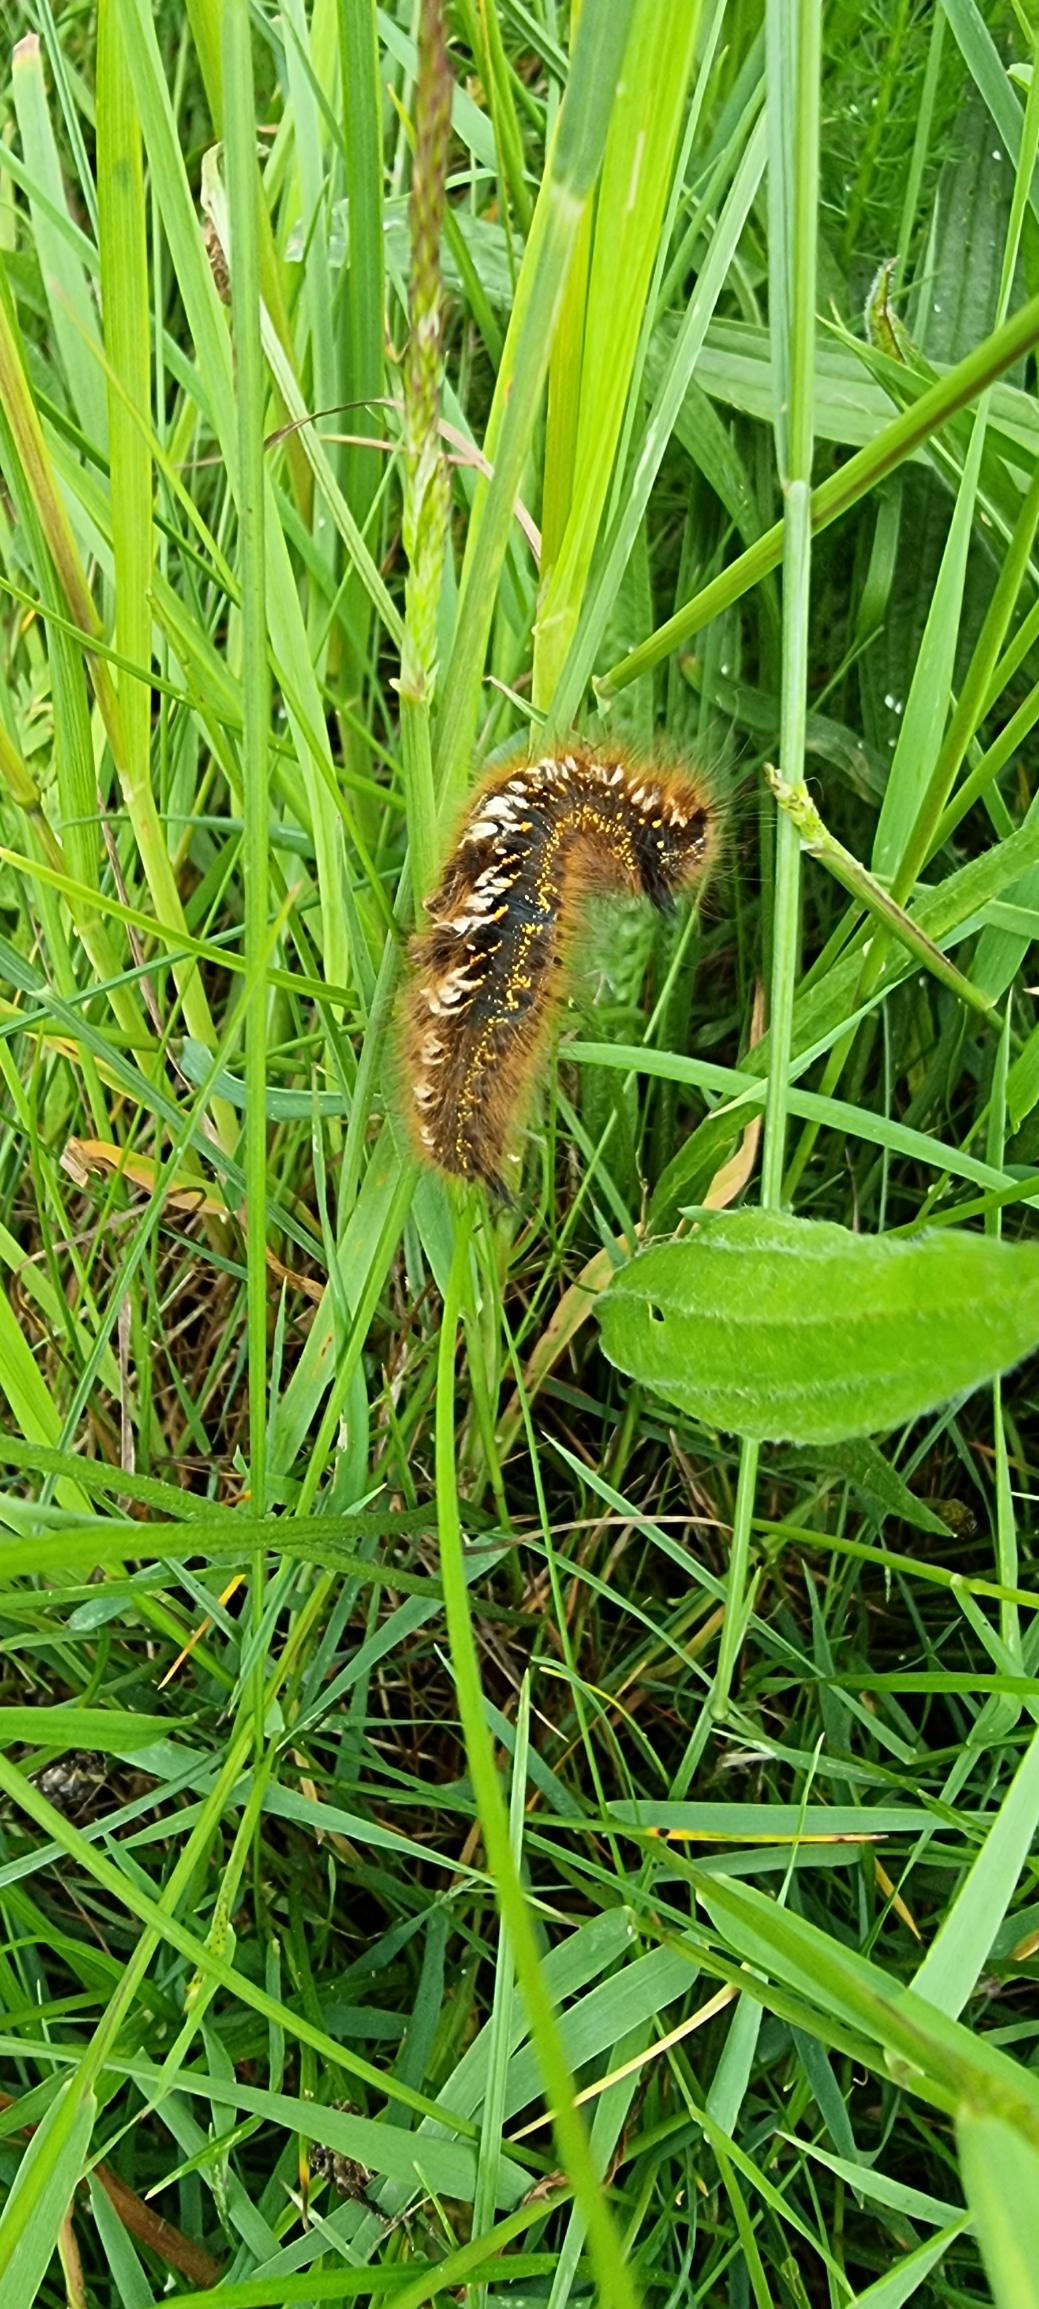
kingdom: Animalia
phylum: Arthropoda
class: Insecta
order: Lepidoptera
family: Lasiocampidae
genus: Euthrix
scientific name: Euthrix potatoria
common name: Græsspinder
